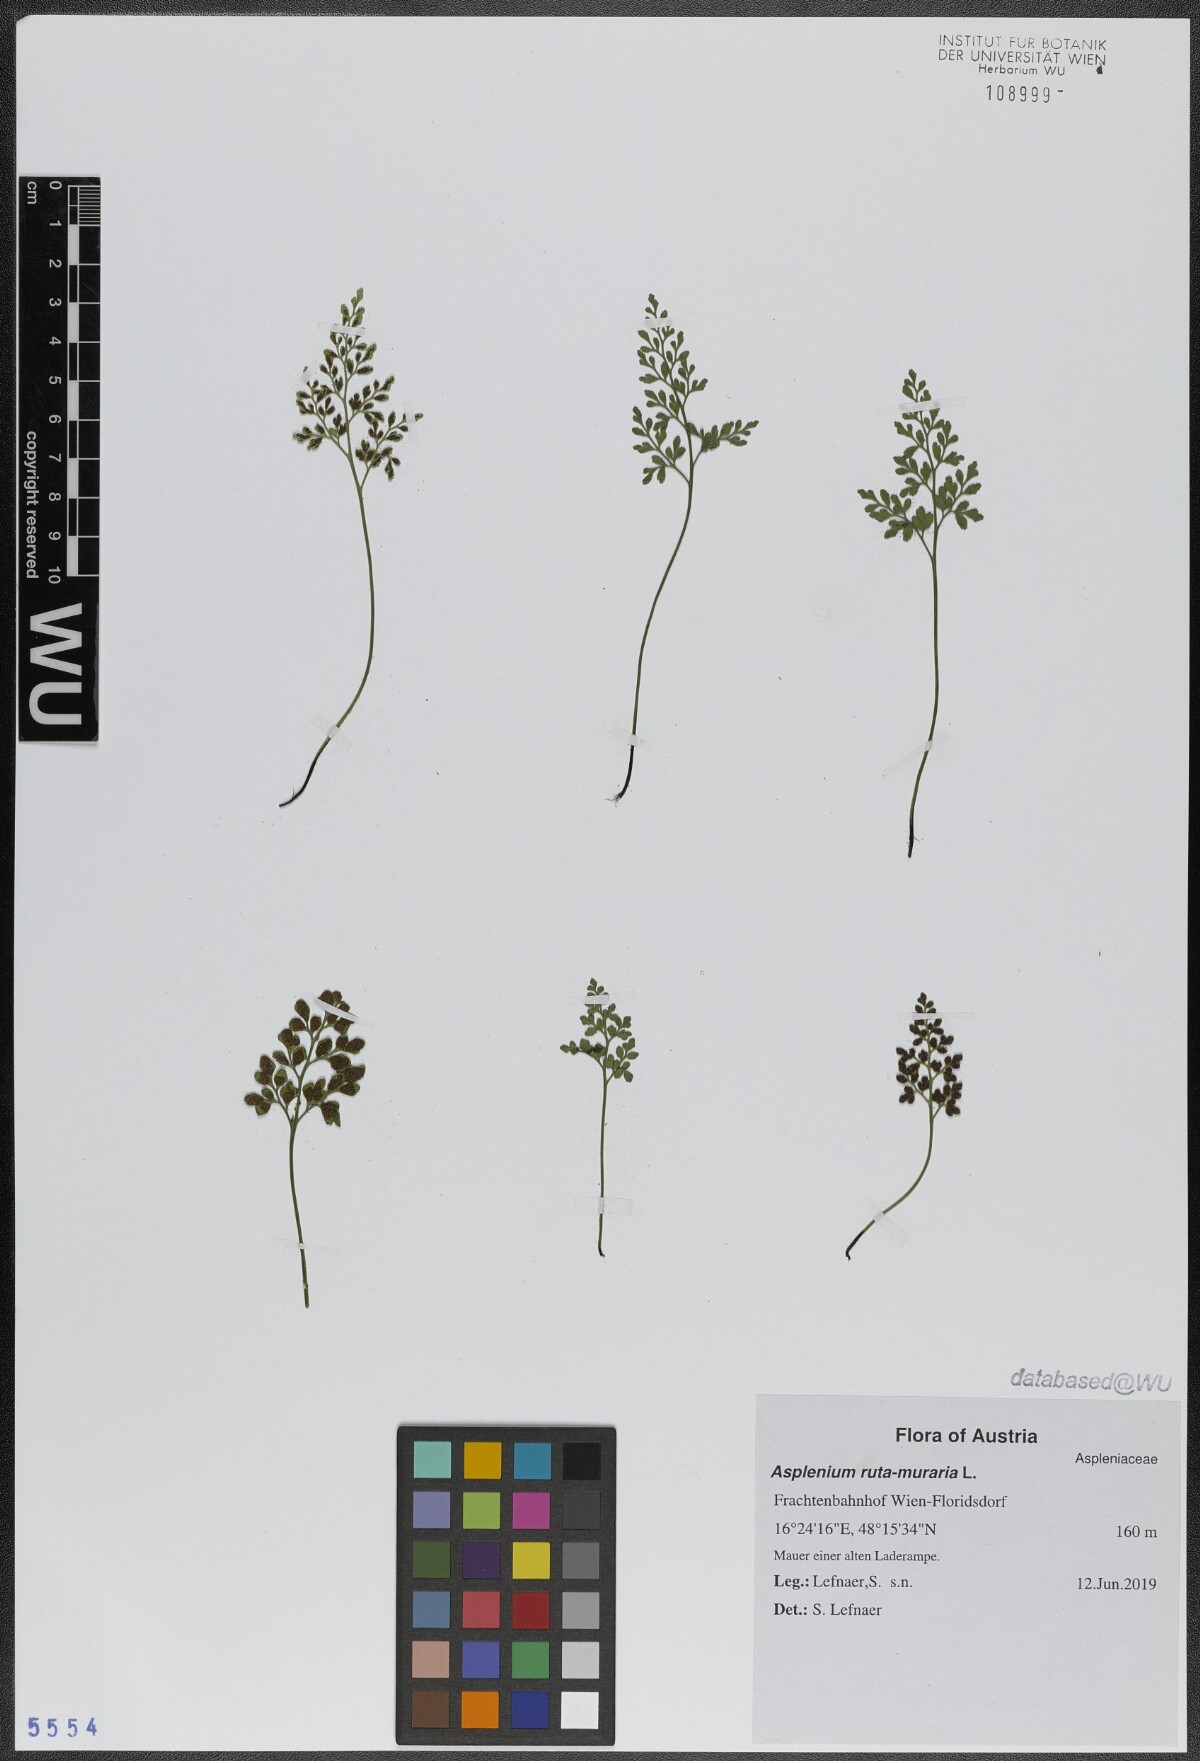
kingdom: Plantae
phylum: Tracheophyta
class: Polypodiopsida
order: Polypodiales
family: Aspleniaceae
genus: Asplenium
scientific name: Asplenium ruta-muraria
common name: Wall-rue
